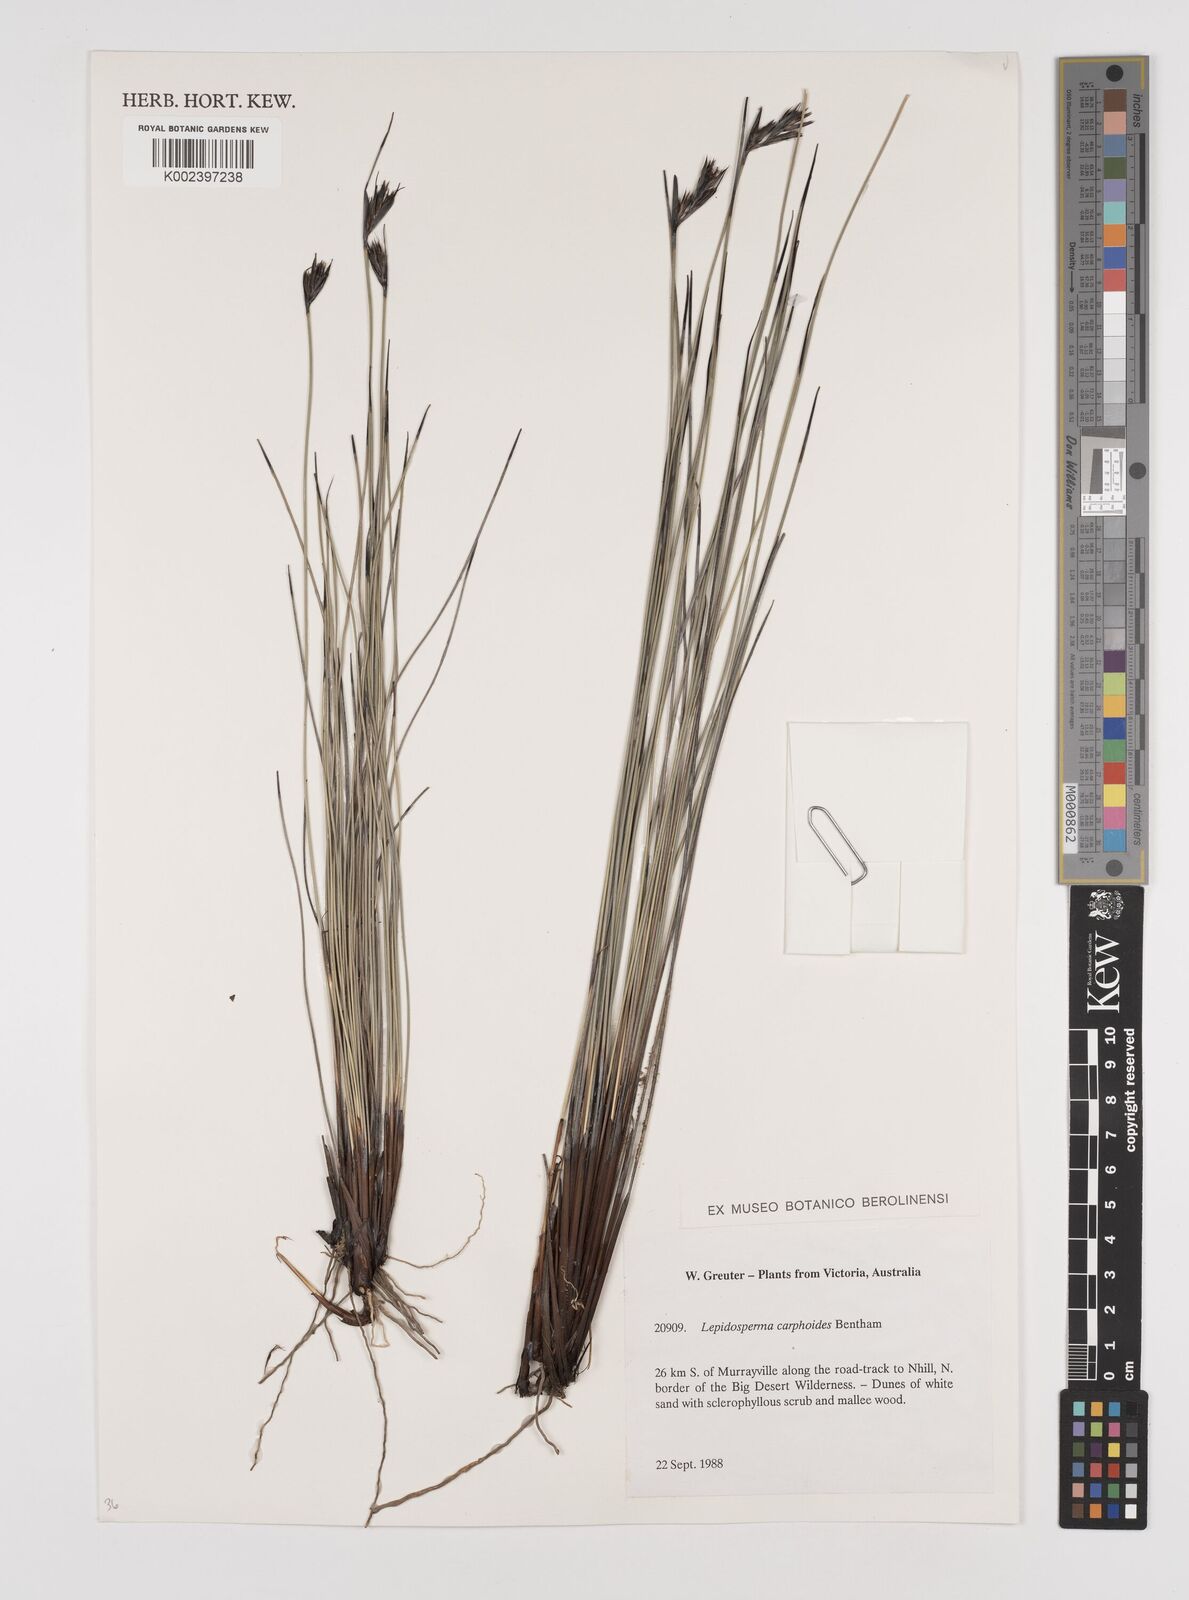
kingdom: Plantae
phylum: Tracheophyta
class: Liliopsida
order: Poales
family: Cyperaceae
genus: Lepidosperma
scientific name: Lepidosperma carphoides
